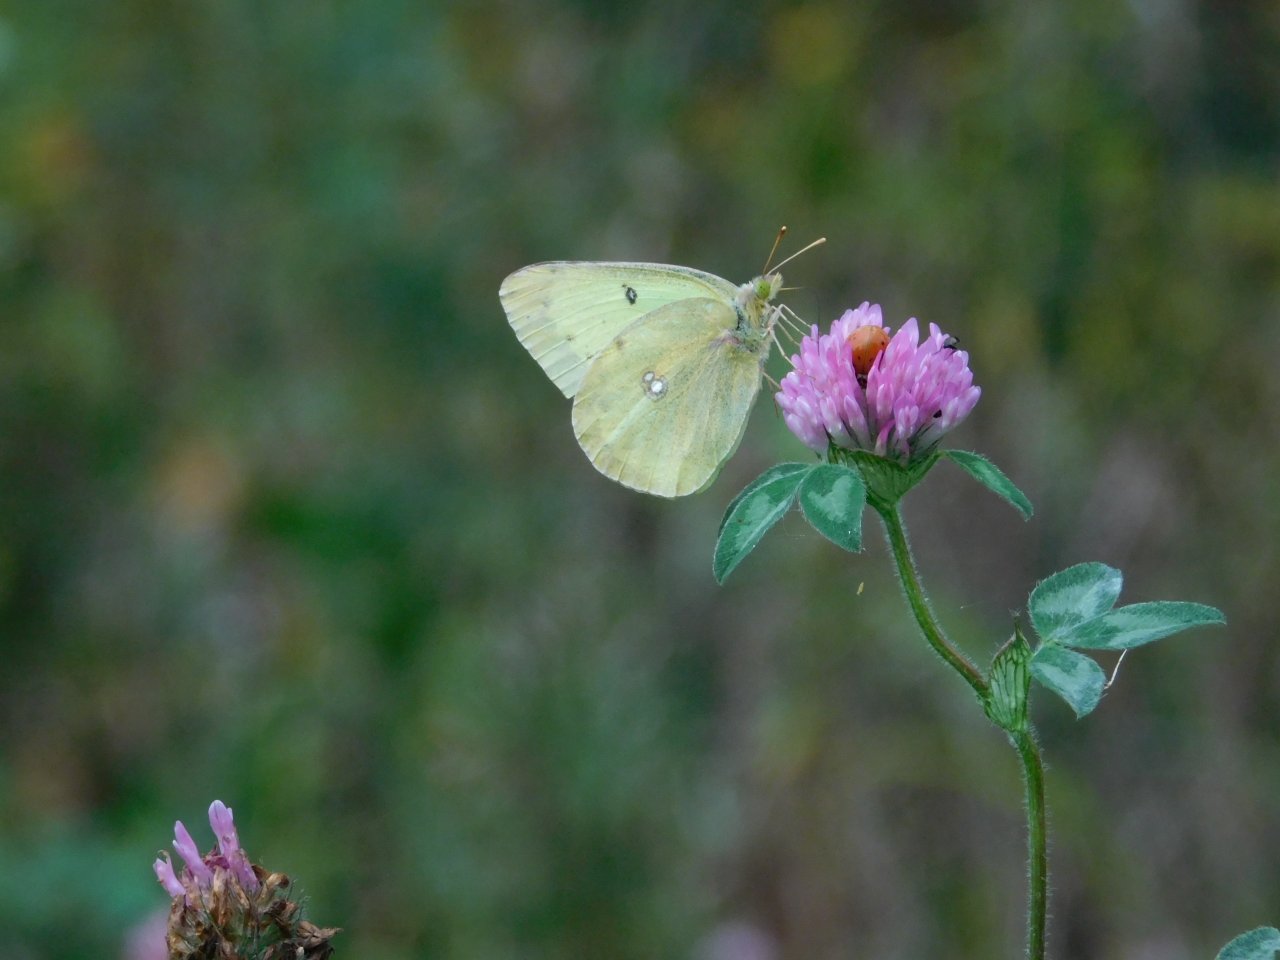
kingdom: Animalia
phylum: Arthropoda
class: Insecta
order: Lepidoptera
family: Pieridae
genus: Colias
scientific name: Colias philodice
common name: Clouded Sulphur
